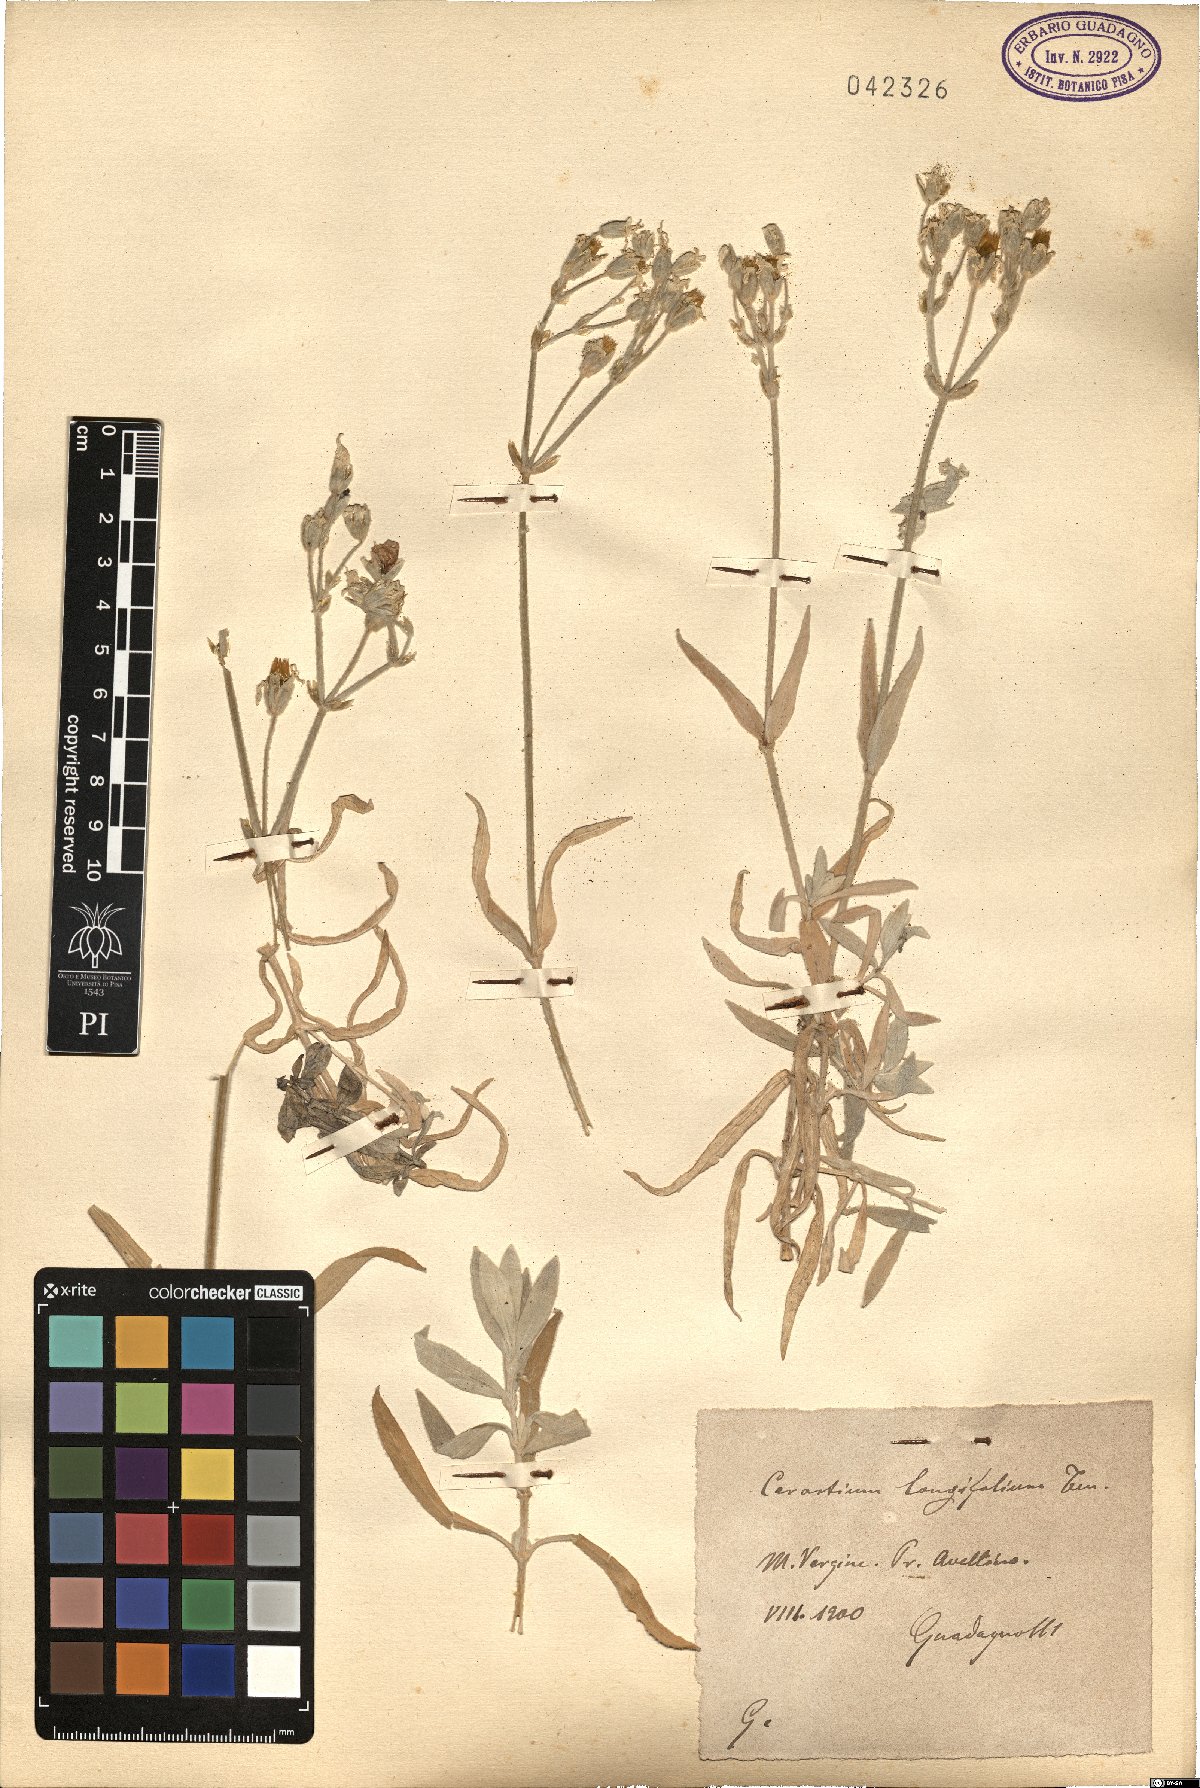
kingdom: Plantae
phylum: Tracheophyta
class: Magnoliopsida
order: Caryophyllales
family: Caryophyllaceae
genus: Cerastium
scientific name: Cerastium tomentosum
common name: Snow-in-summer
